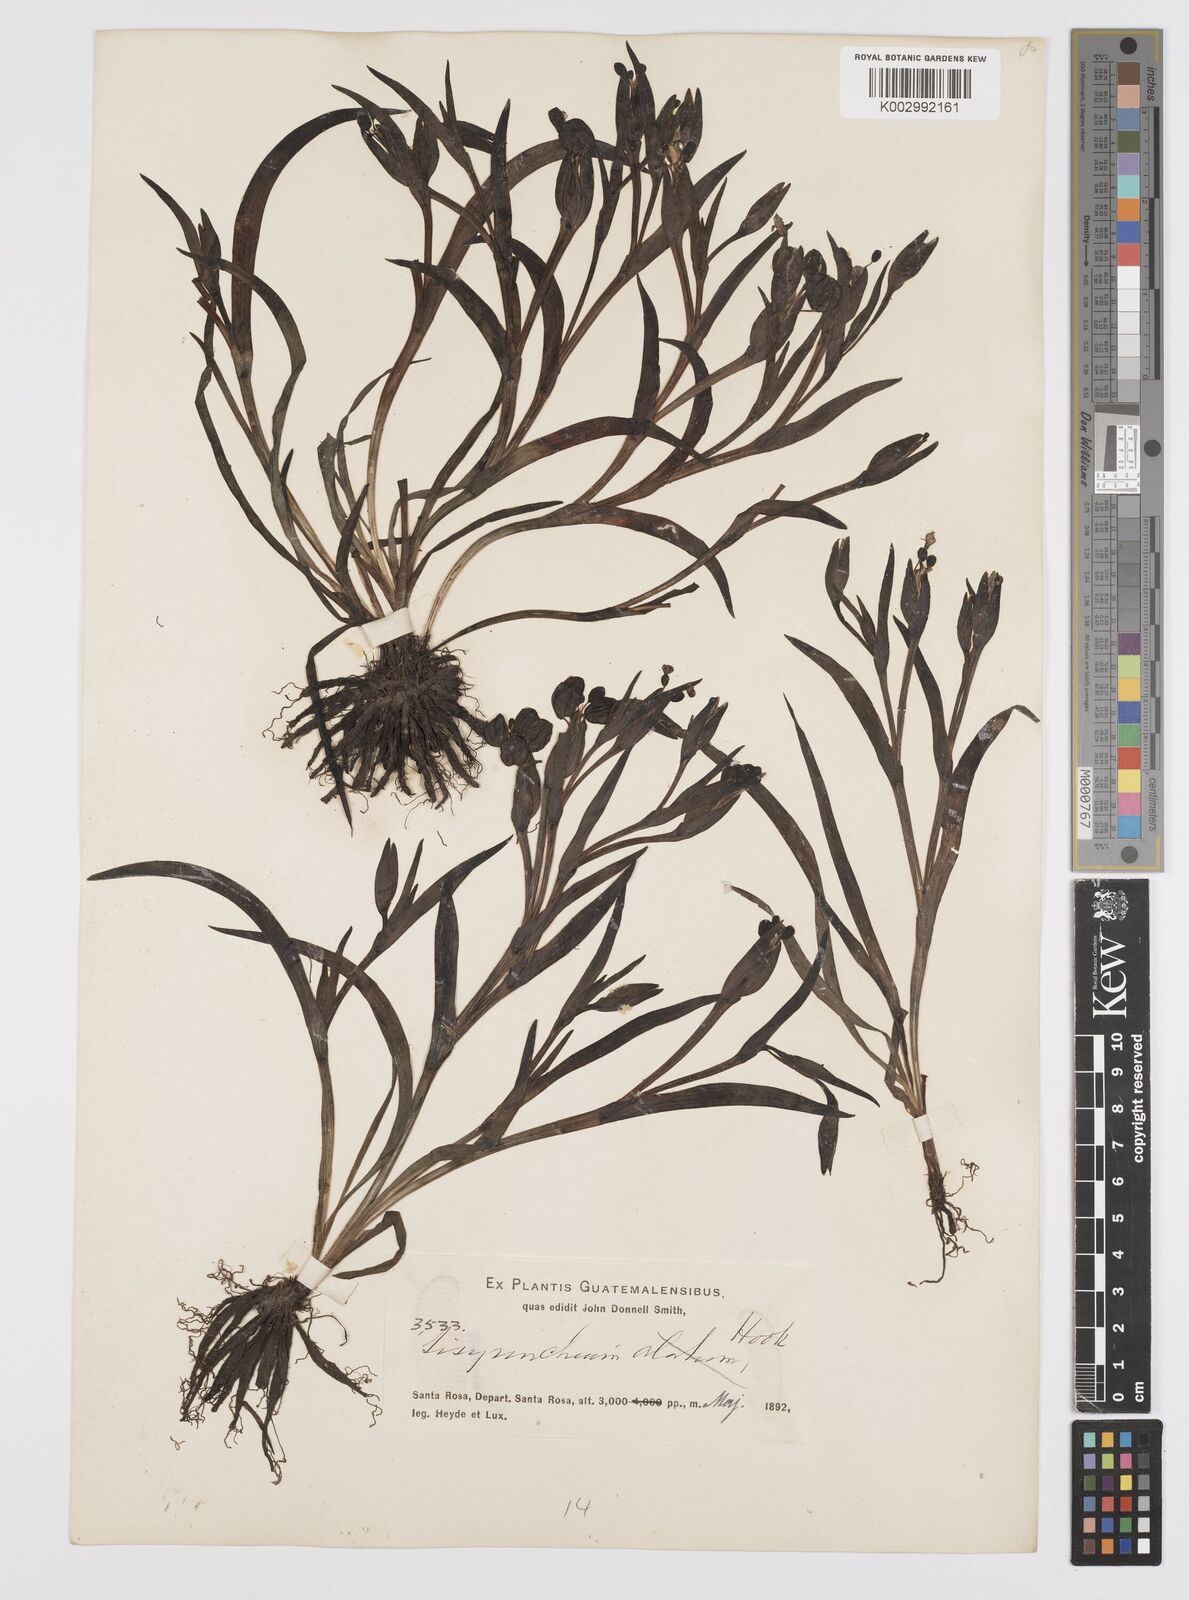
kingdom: Plantae
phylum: Tracheophyta
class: Liliopsida
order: Asparagales
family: Iridaceae
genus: Sisyrinchium
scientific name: Sisyrinchium coulterianum
